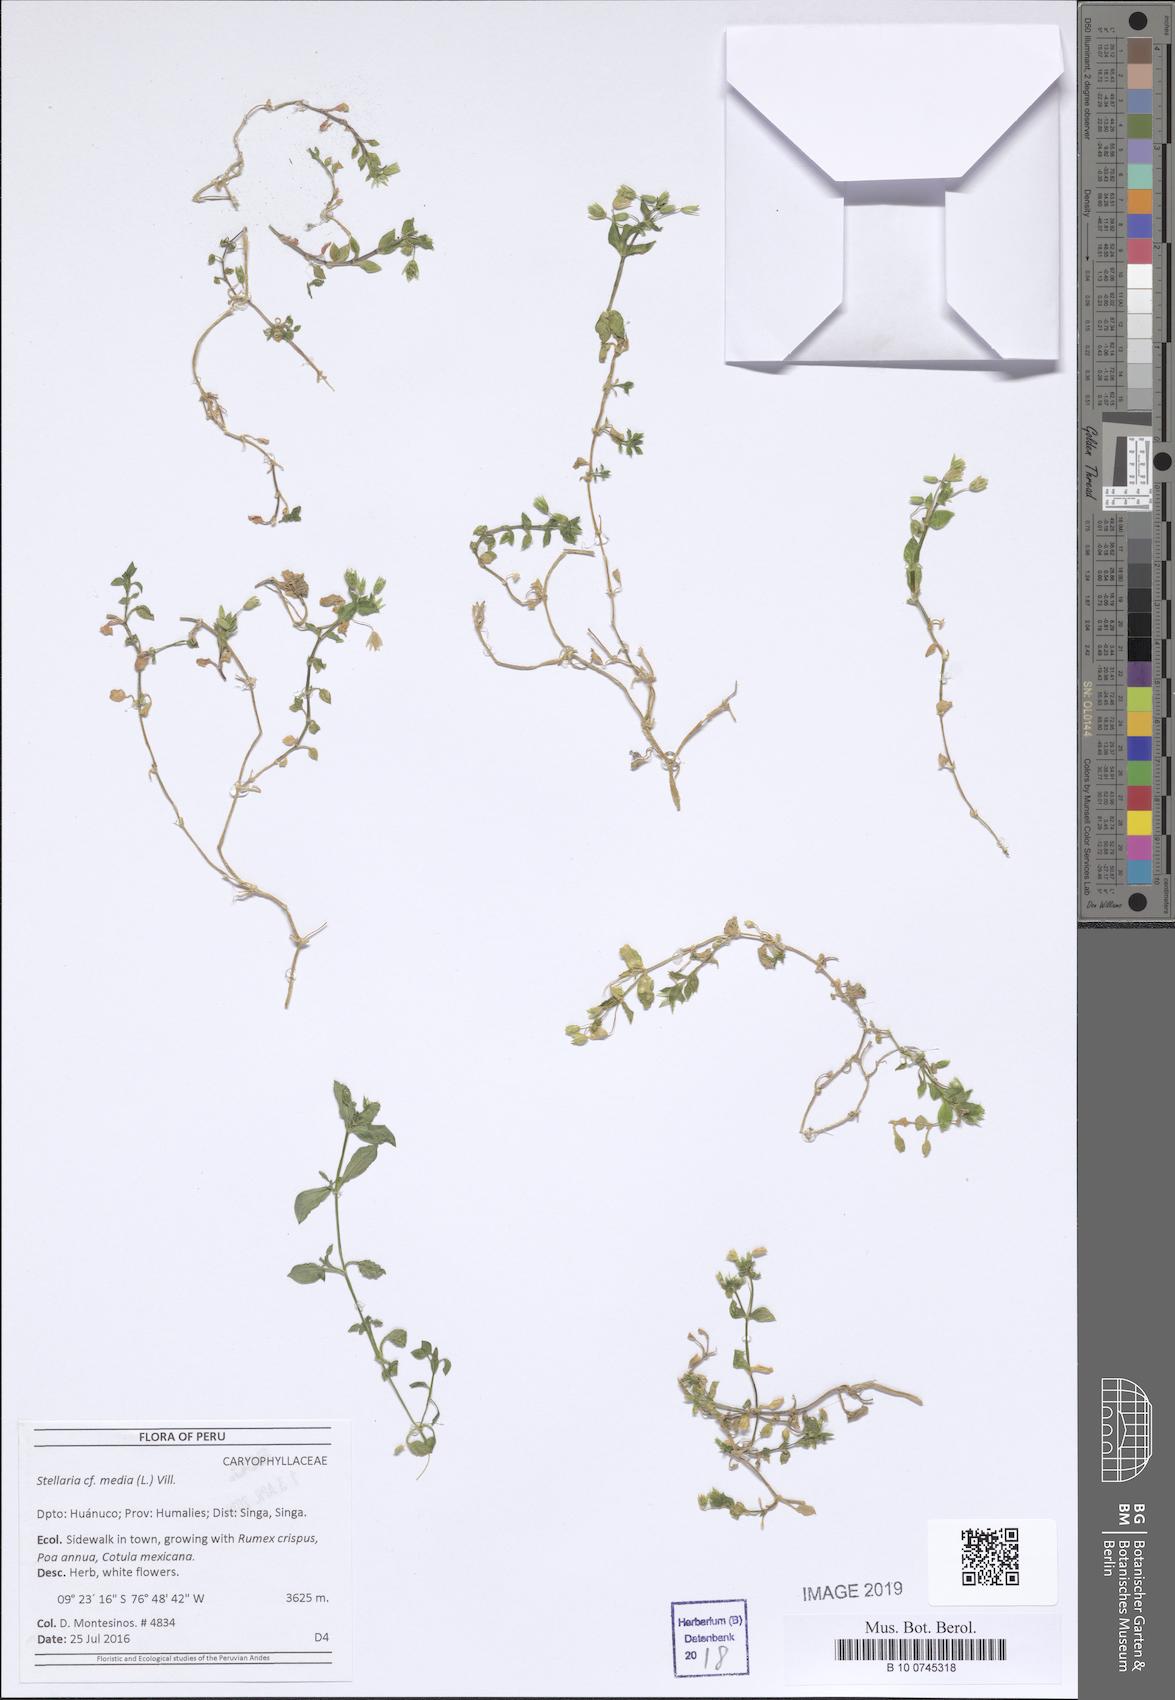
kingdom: Plantae
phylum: Tracheophyta
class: Magnoliopsida
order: Caryophyllales
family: Caryophyllaceae
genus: Stellaria
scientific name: Stellaria media
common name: Common chickweed
